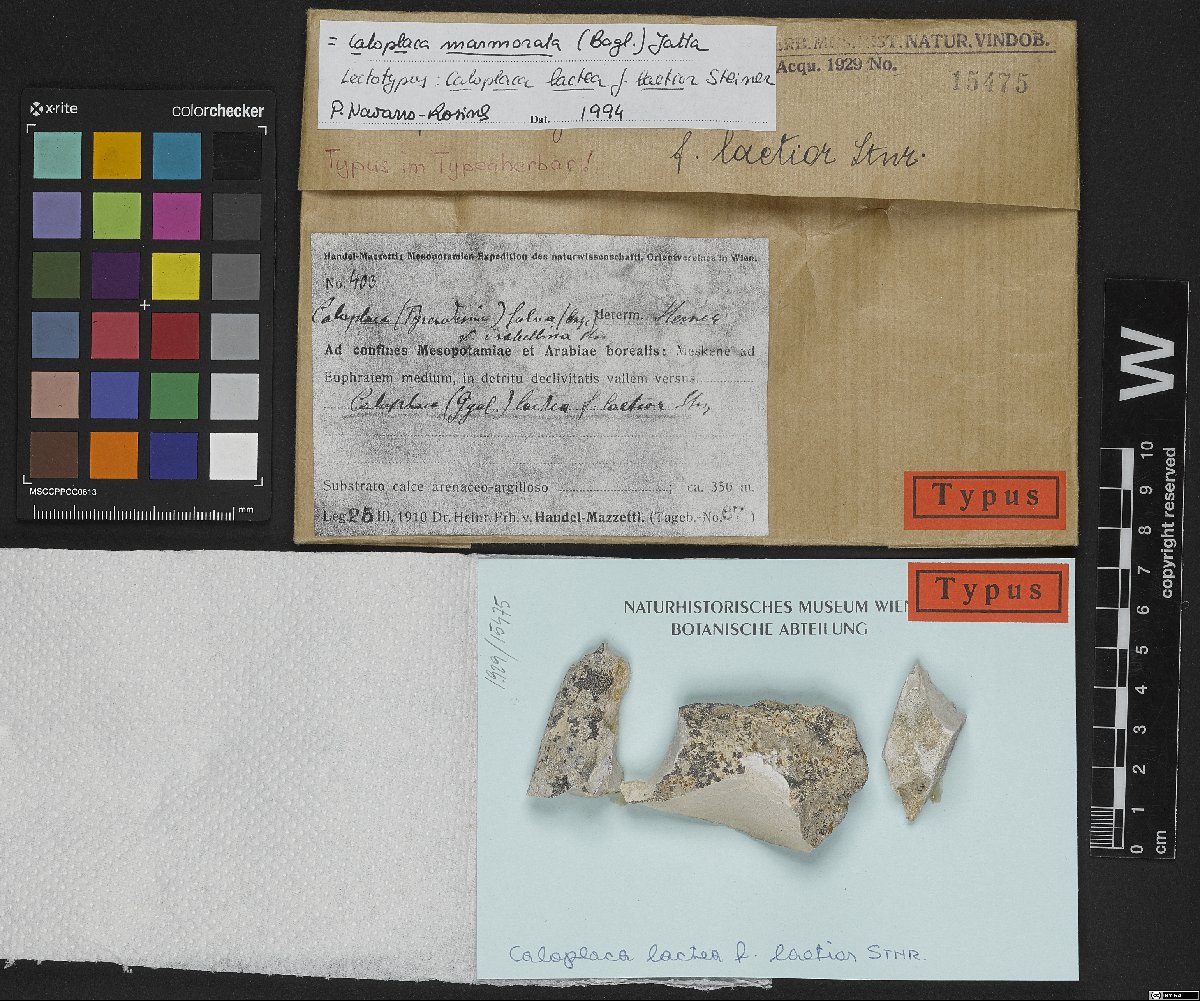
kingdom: Fungi
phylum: Ascomycota
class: Lecanoromycetes
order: Teloschistales
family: Teloschistaceae
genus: Xanthocarpia
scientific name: Xanthocarpia marmorata
